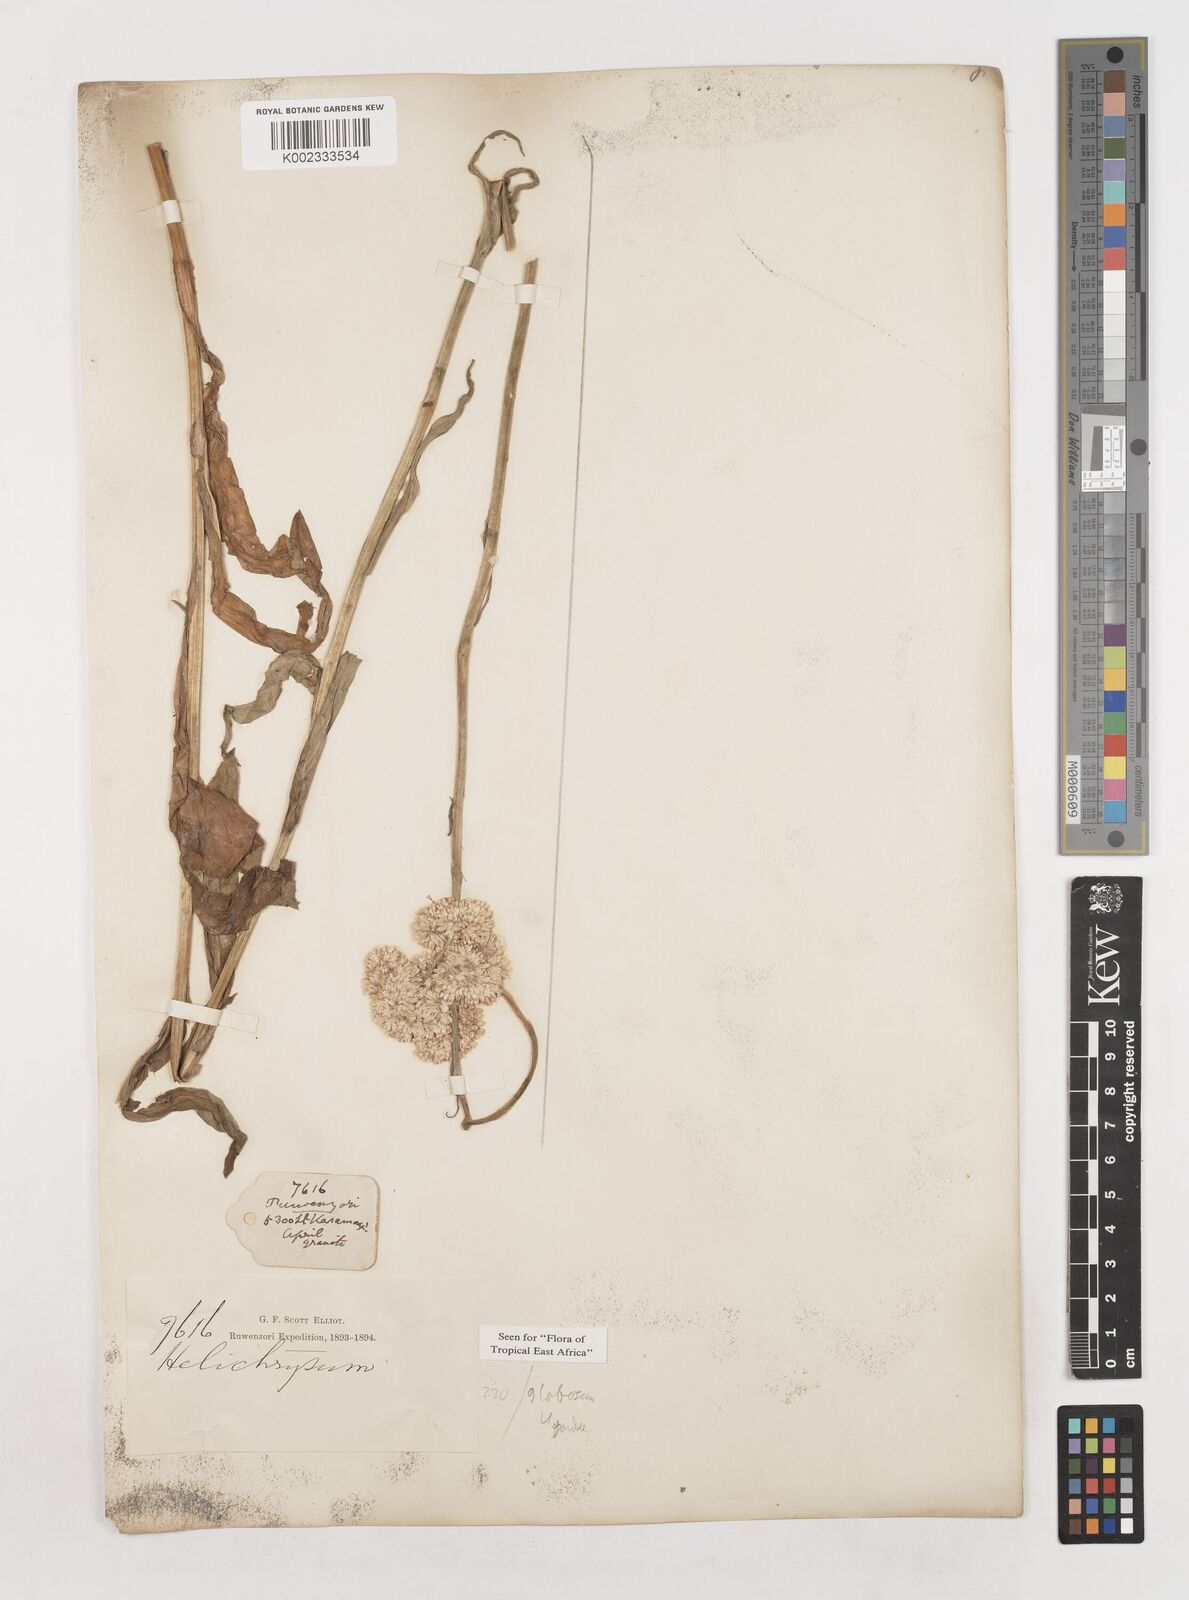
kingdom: Plantae
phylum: Tracheophyta
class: Magnoliopsida
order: Asterales
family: Asteraceae
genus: Helichrysum
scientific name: Helichrysum globosum
